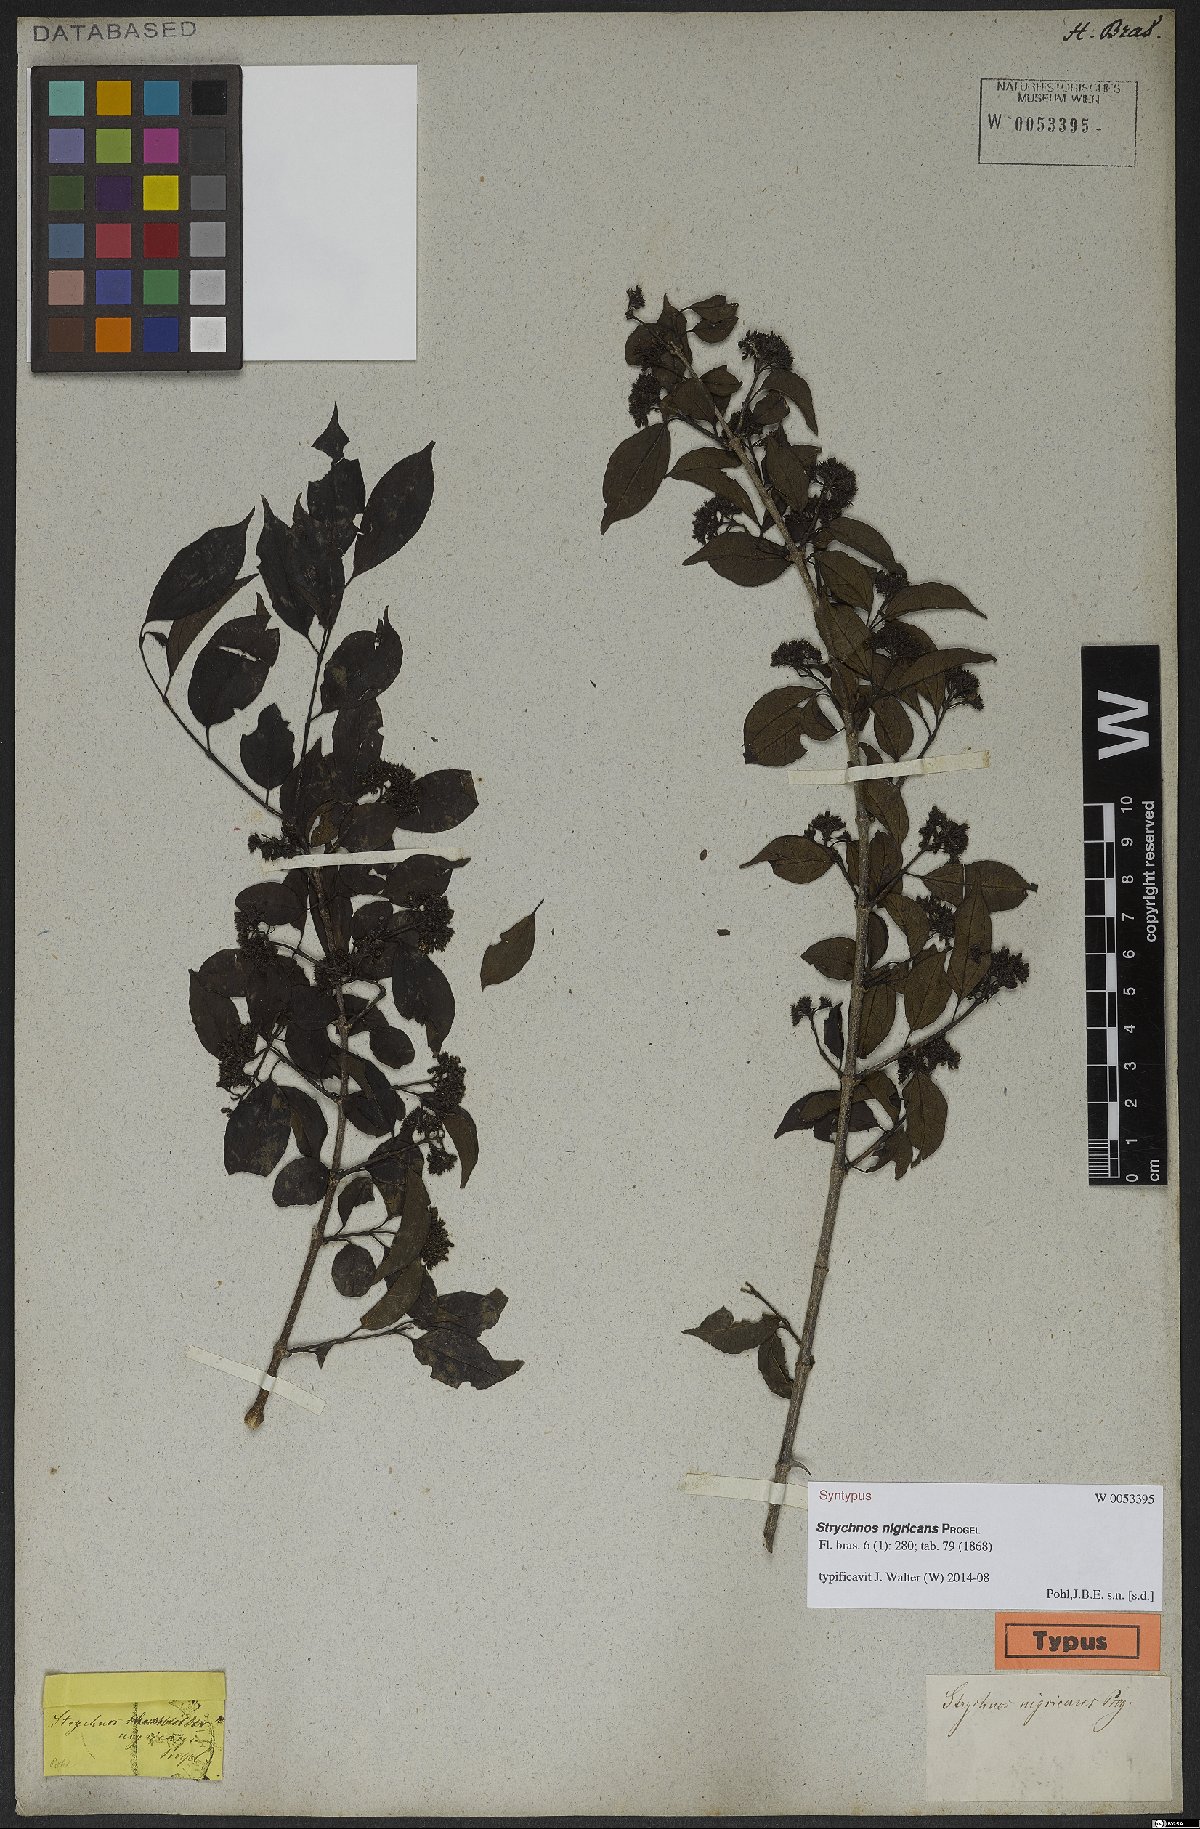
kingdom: Plantae
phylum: Tracheophyta
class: Magnoliopsida
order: Gentianales
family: Loganiaceae
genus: Strychnos
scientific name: Strychnos nigricans
